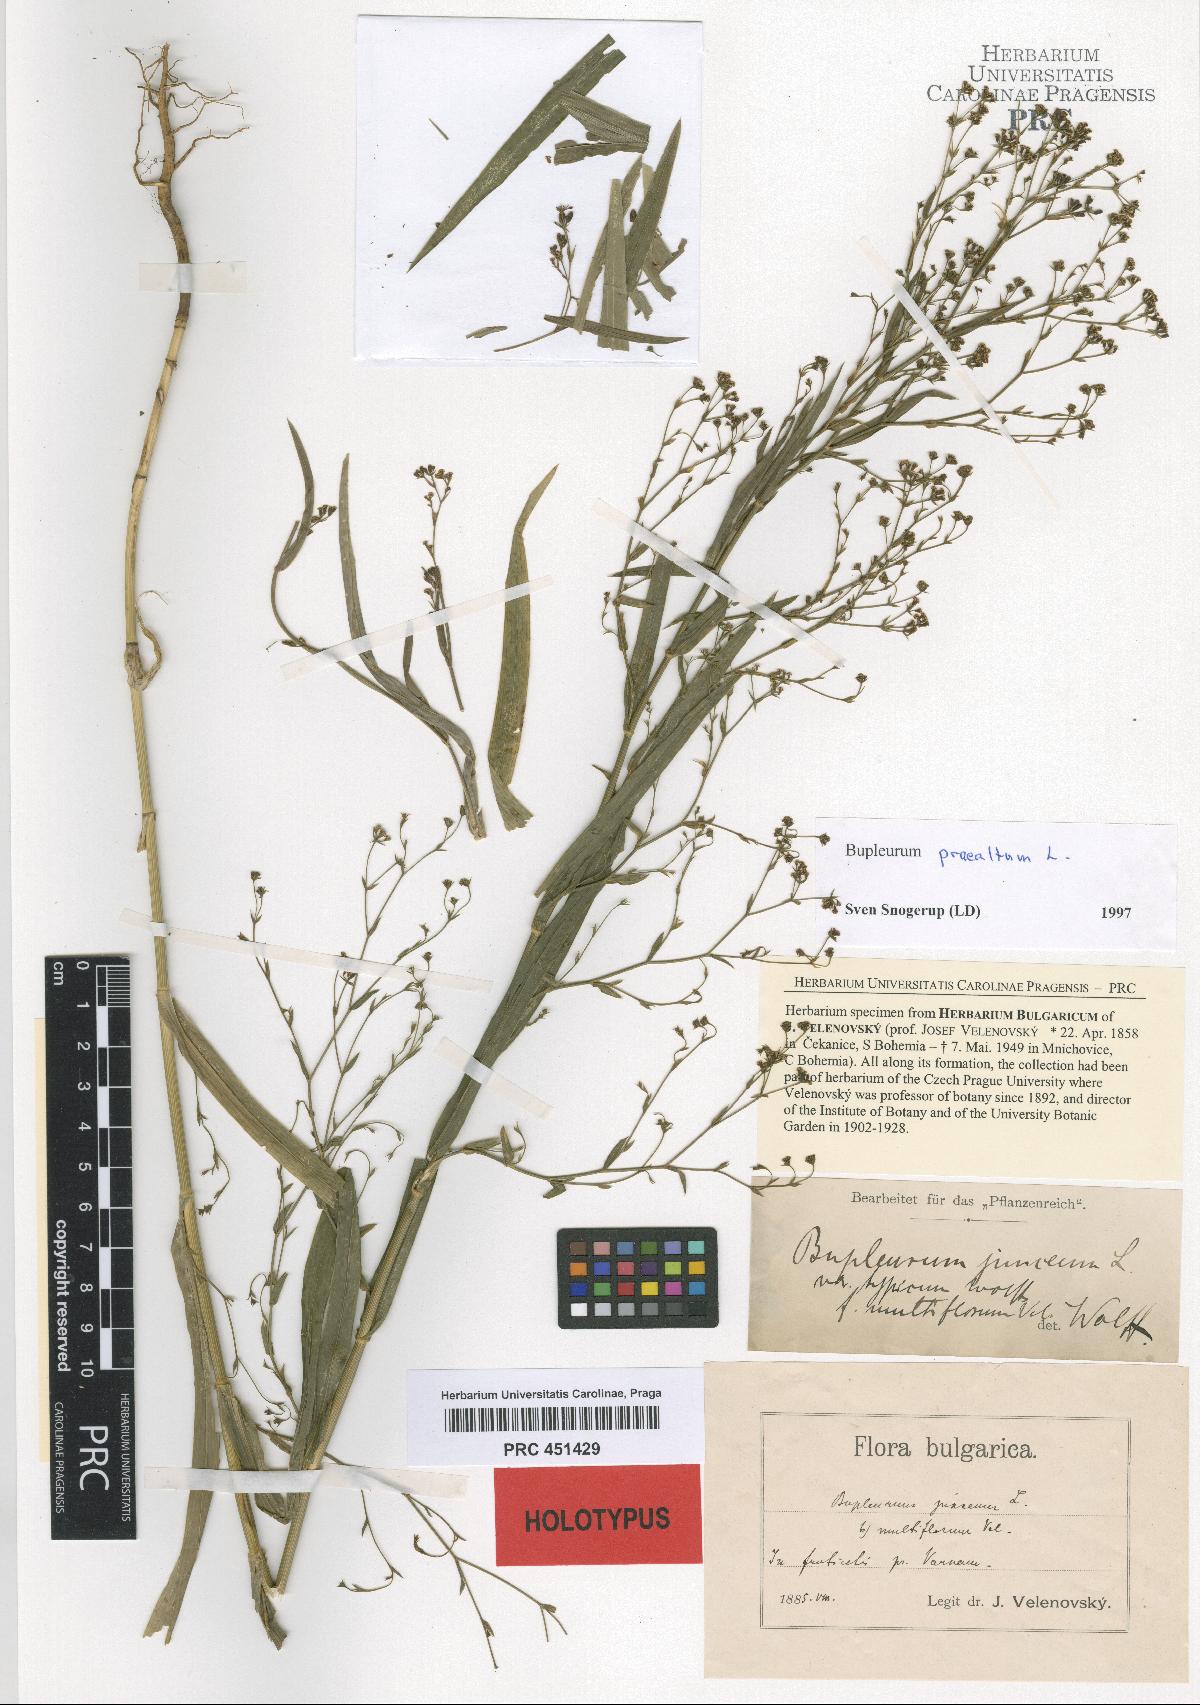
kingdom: Plantae
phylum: Tracheophyta
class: Magnoliopsida
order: Apiales
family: Apiaceae
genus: Bupleurum
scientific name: Bupleurum praealtum
